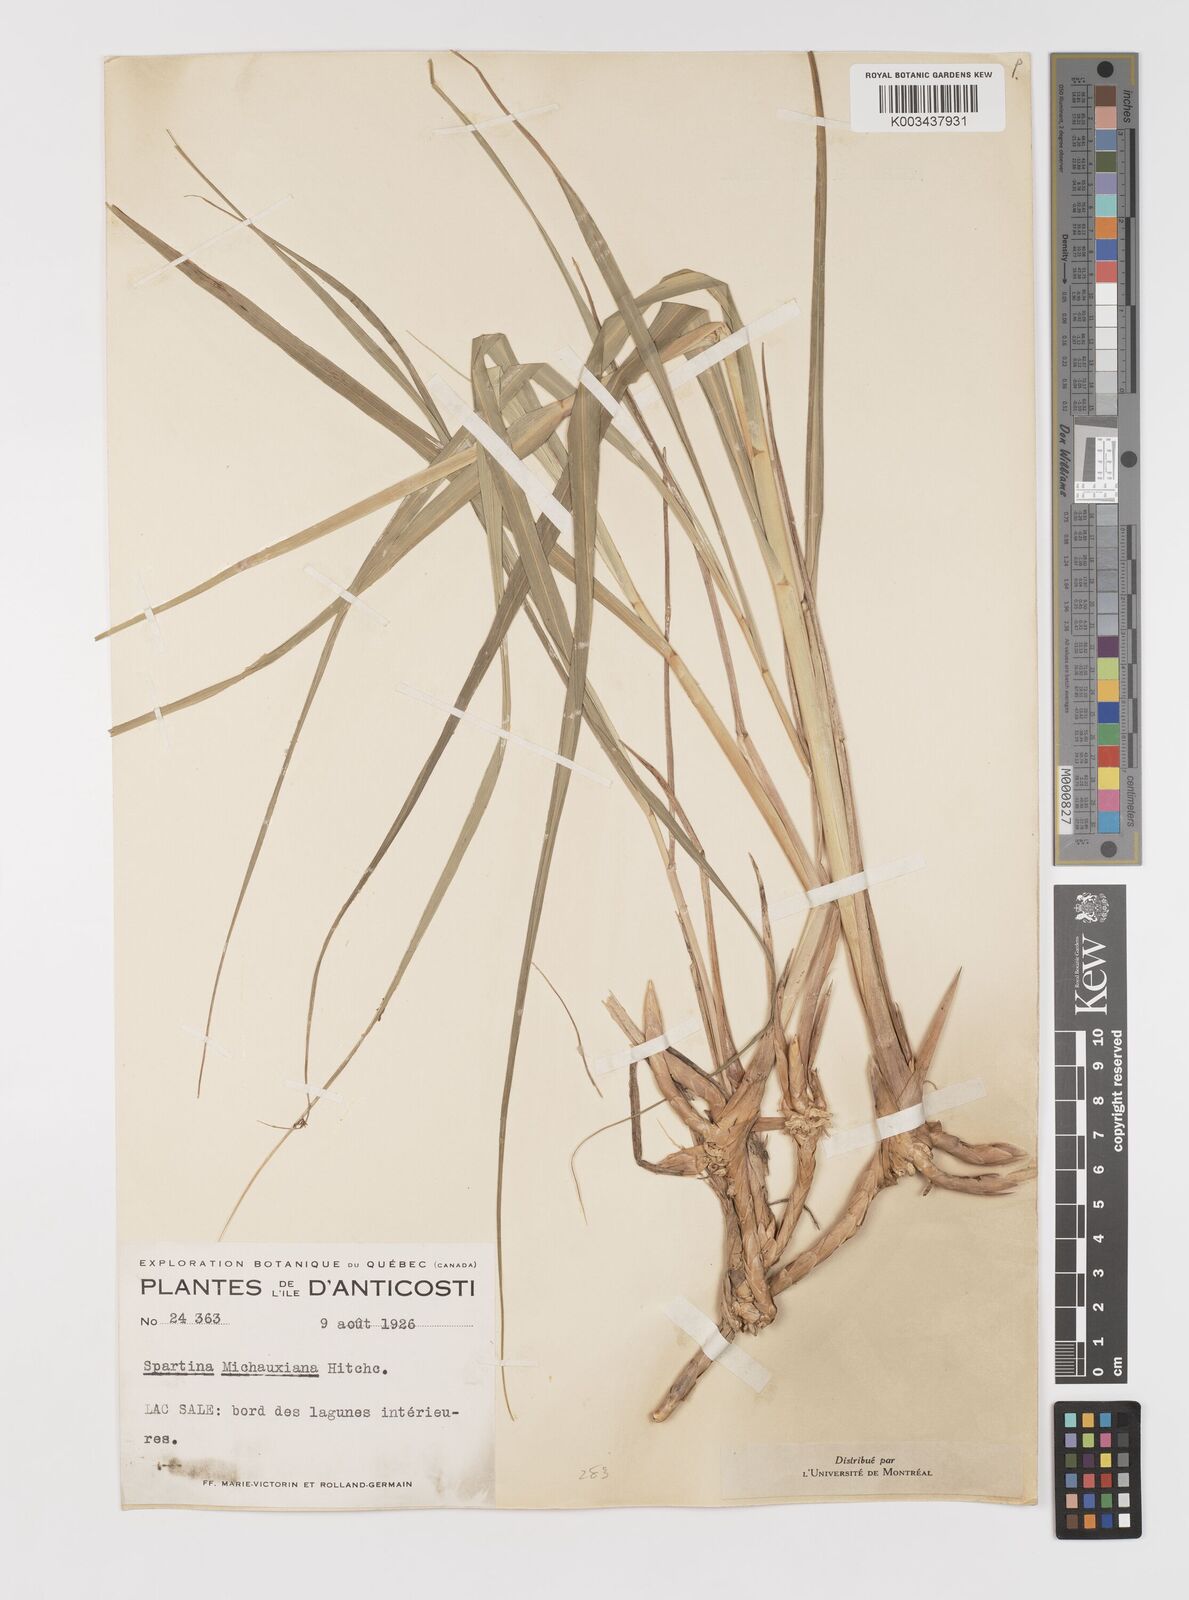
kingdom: Plantae
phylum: Tracheophyta
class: Liliopsida
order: Poales
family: Poaceae
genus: Sporobolus
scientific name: Sporobolus michauxianus
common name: Freshwater cordgrass
